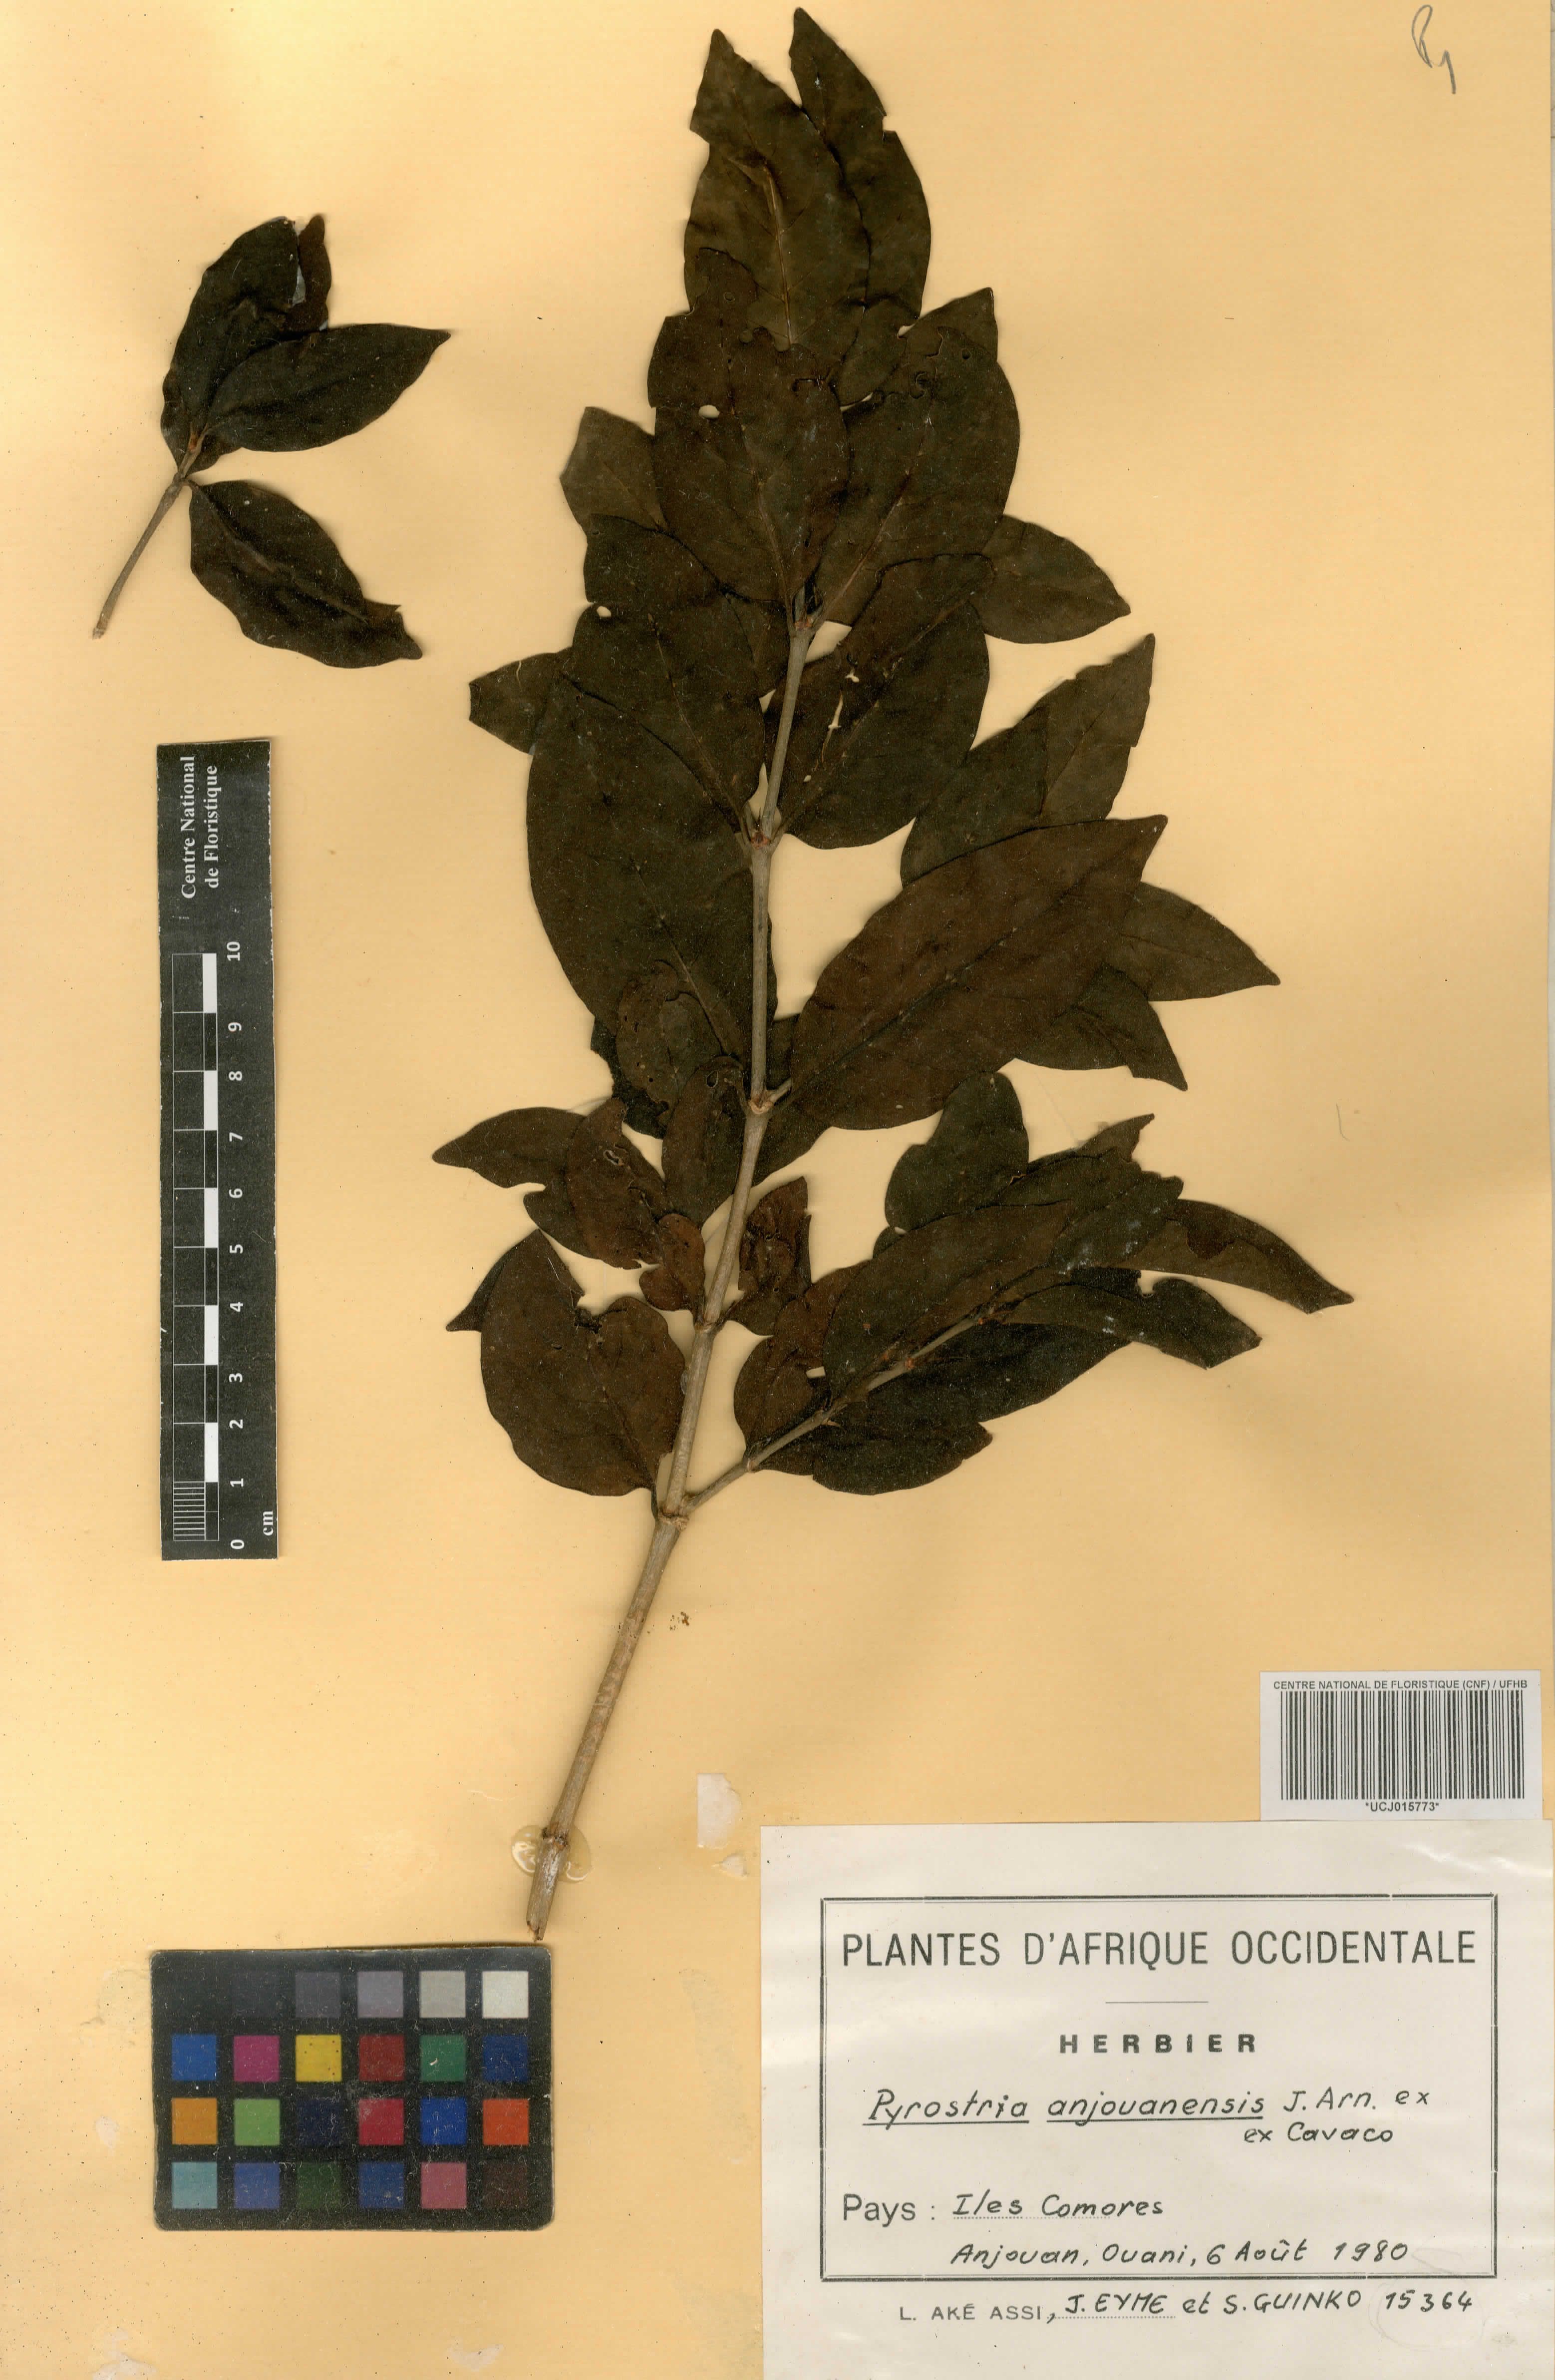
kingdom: Plantae
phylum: Tracheophyta
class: Magnoliopsida
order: Gentianales
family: Rubiaceae
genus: Pyrostria
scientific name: Pyrostria anjouanensis
